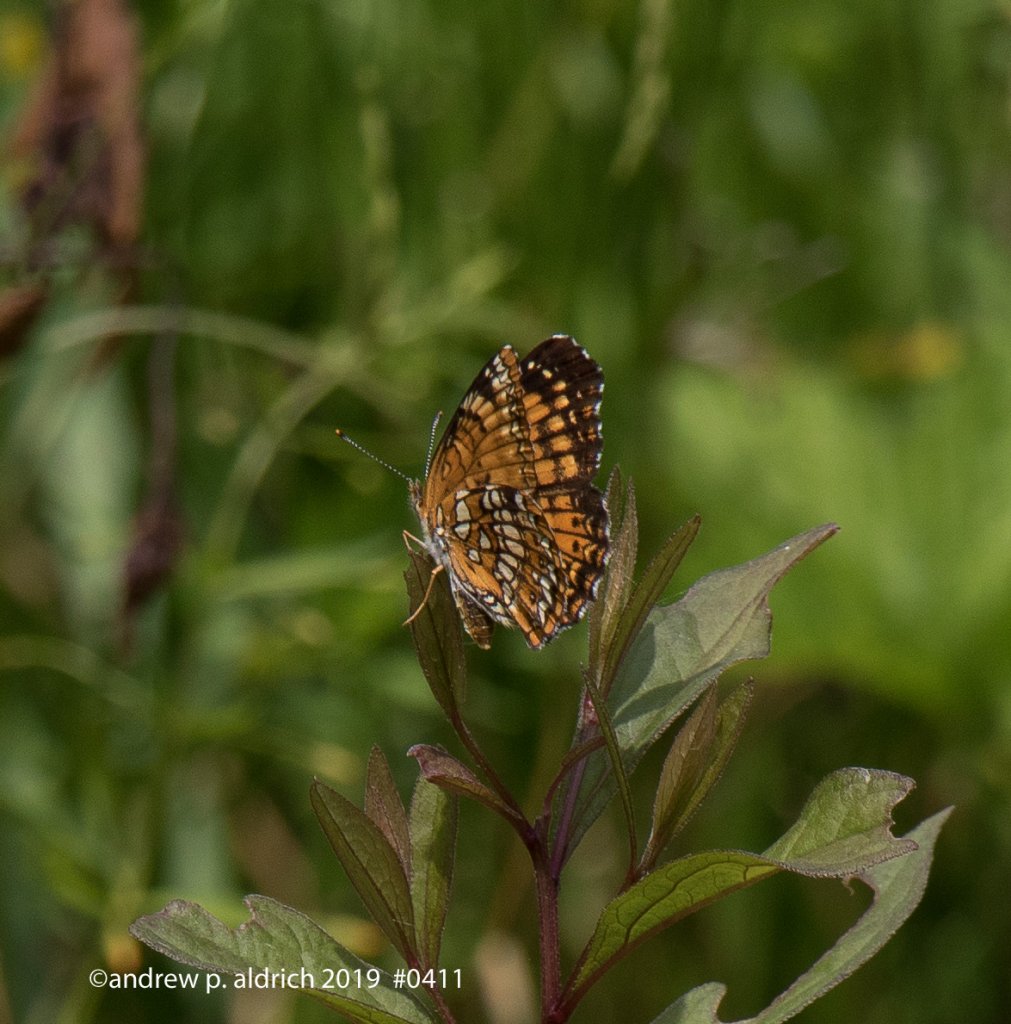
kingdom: Animalia
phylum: Arthropoda
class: Insecta
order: Lepidoptera
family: Nymphalidae
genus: Chlosyne
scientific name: Chlosyne harrisii
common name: Harris's Checkerspot
